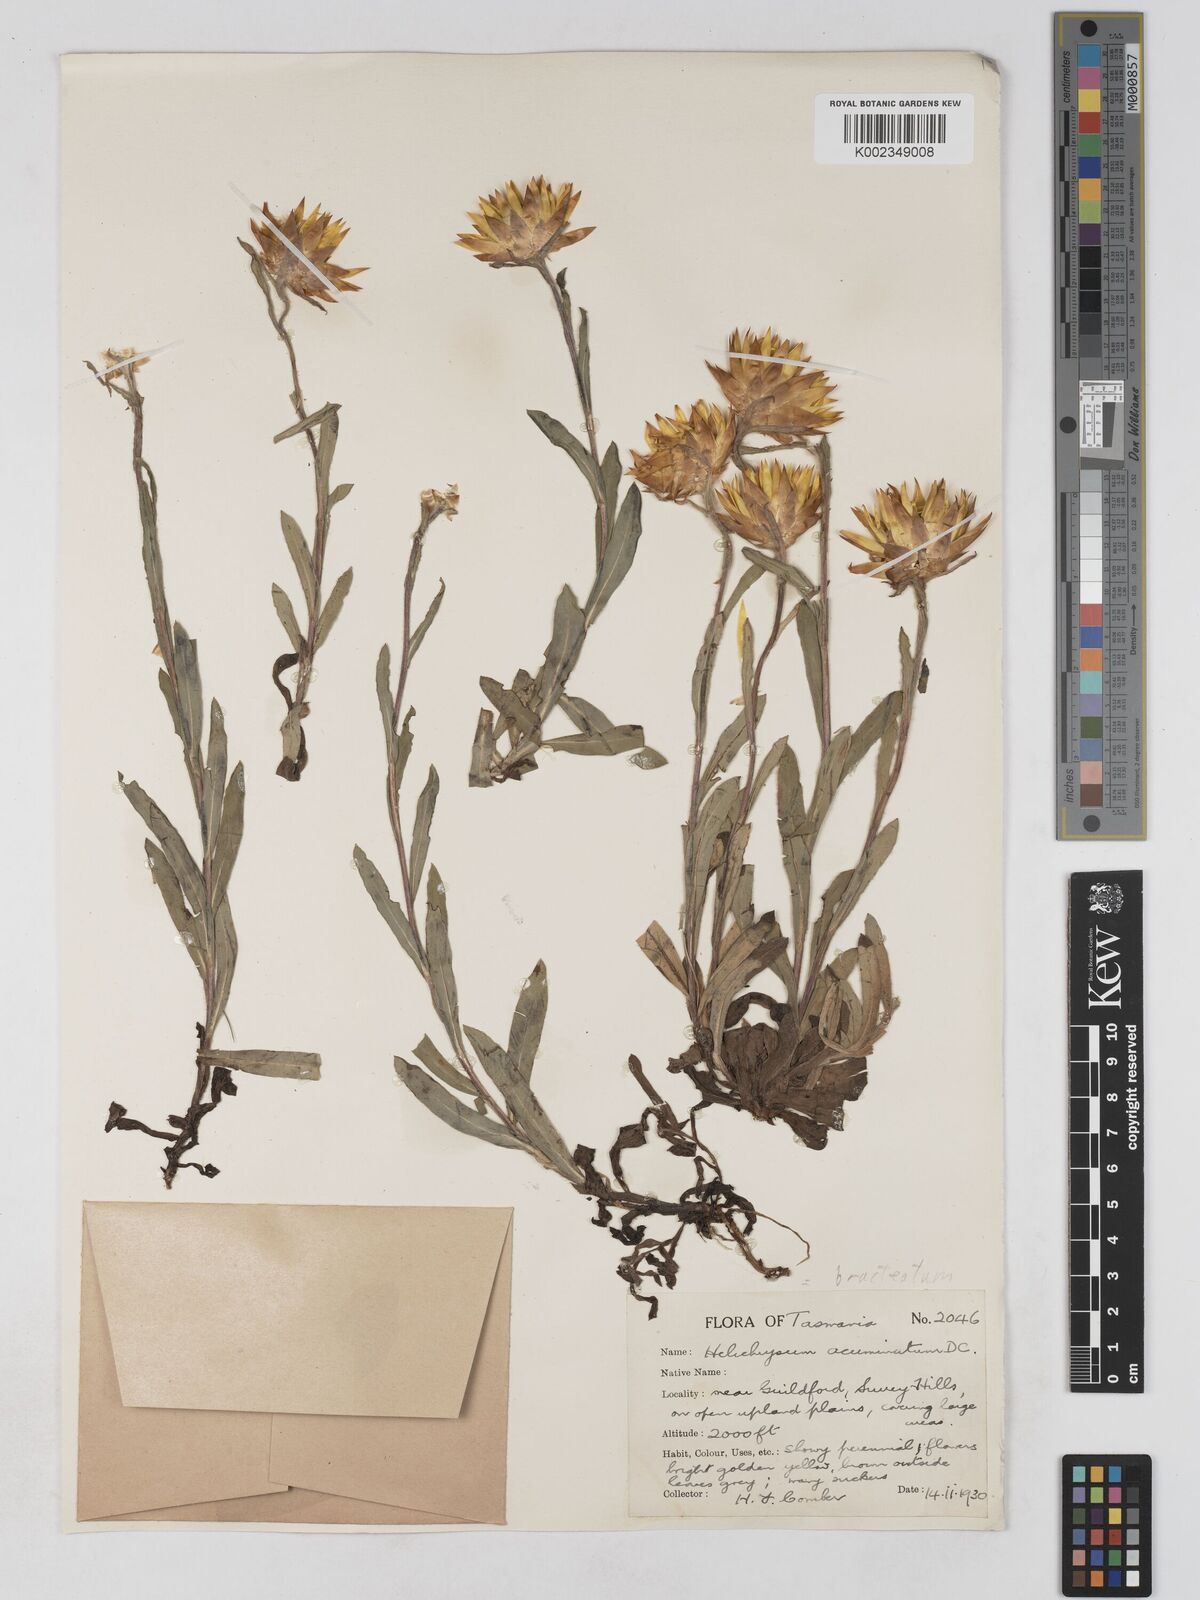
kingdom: Plantae
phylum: Tracheophyta
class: Magnoliopsida
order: Asterales
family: Asteraceae
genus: Xerochrysum
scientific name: Xerochrysum bracteatum
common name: Bracted strawflower
